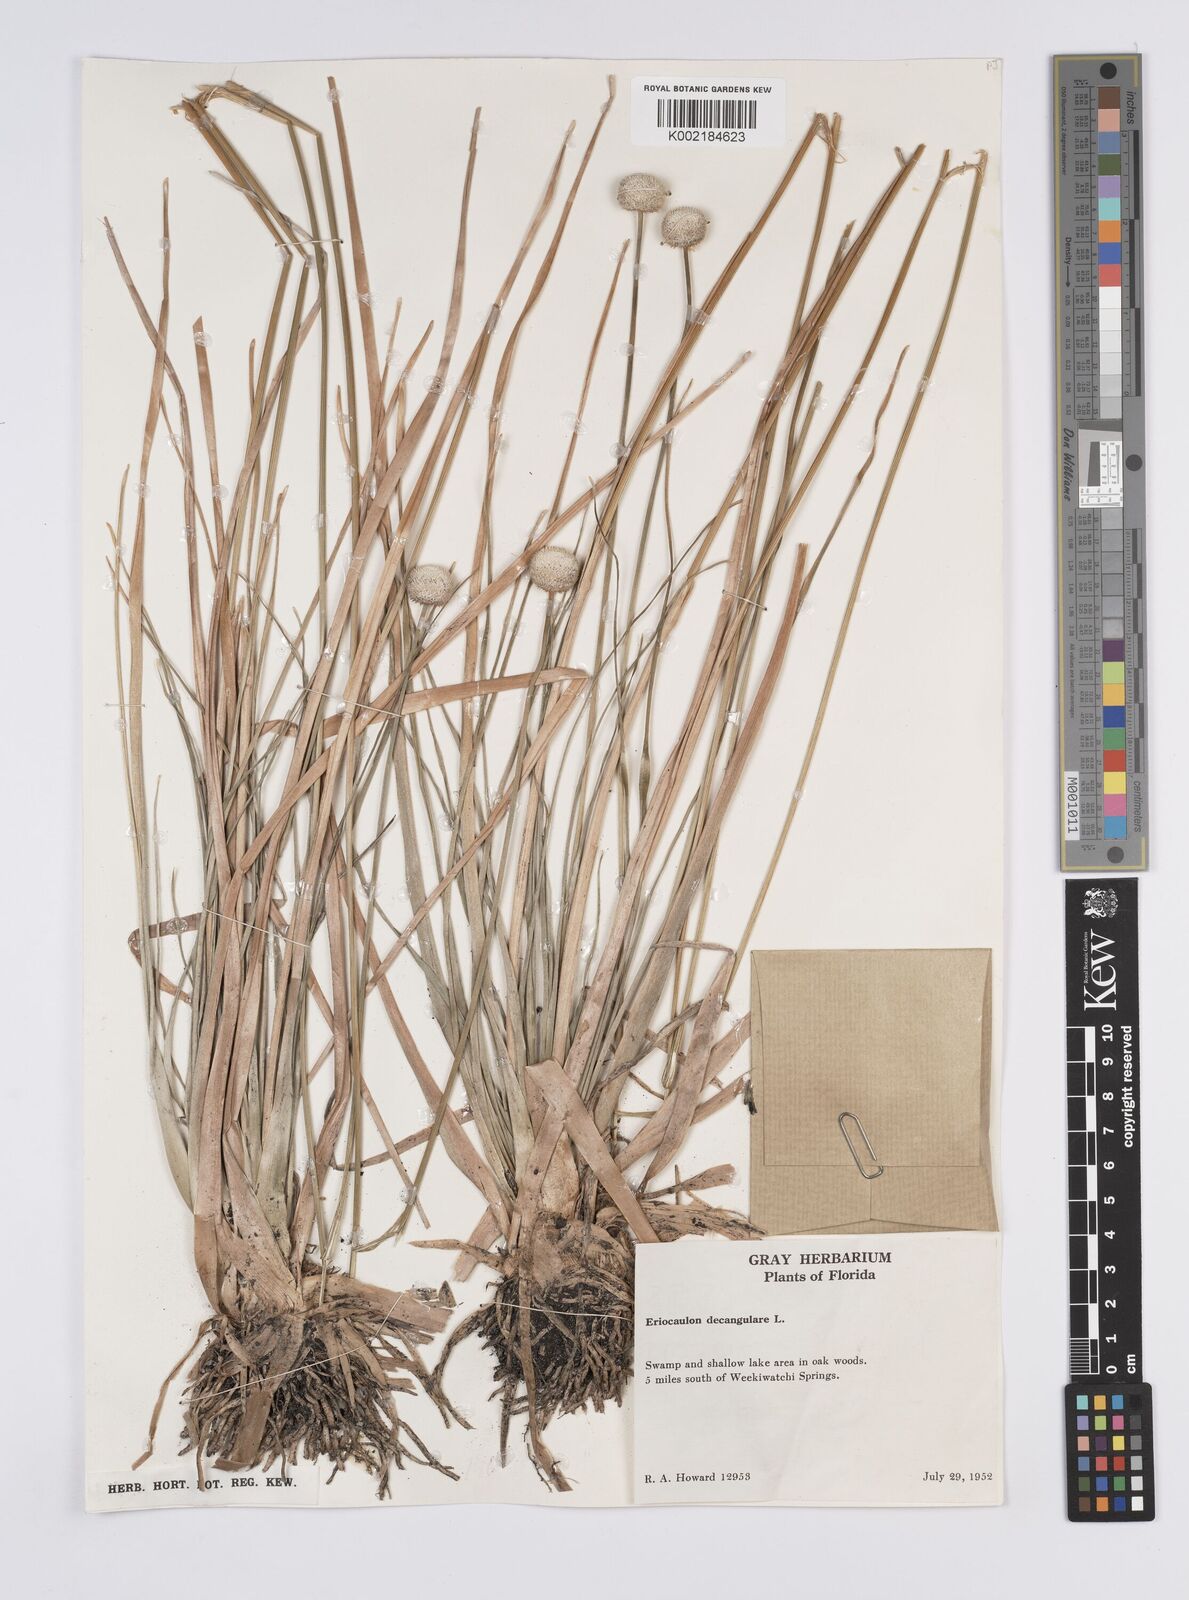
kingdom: Plantae
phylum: Tracheophyta
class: Liliopsida
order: Poales
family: Eriocaulaceae
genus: Eriocaulon
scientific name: Eriocaulon decangulare
